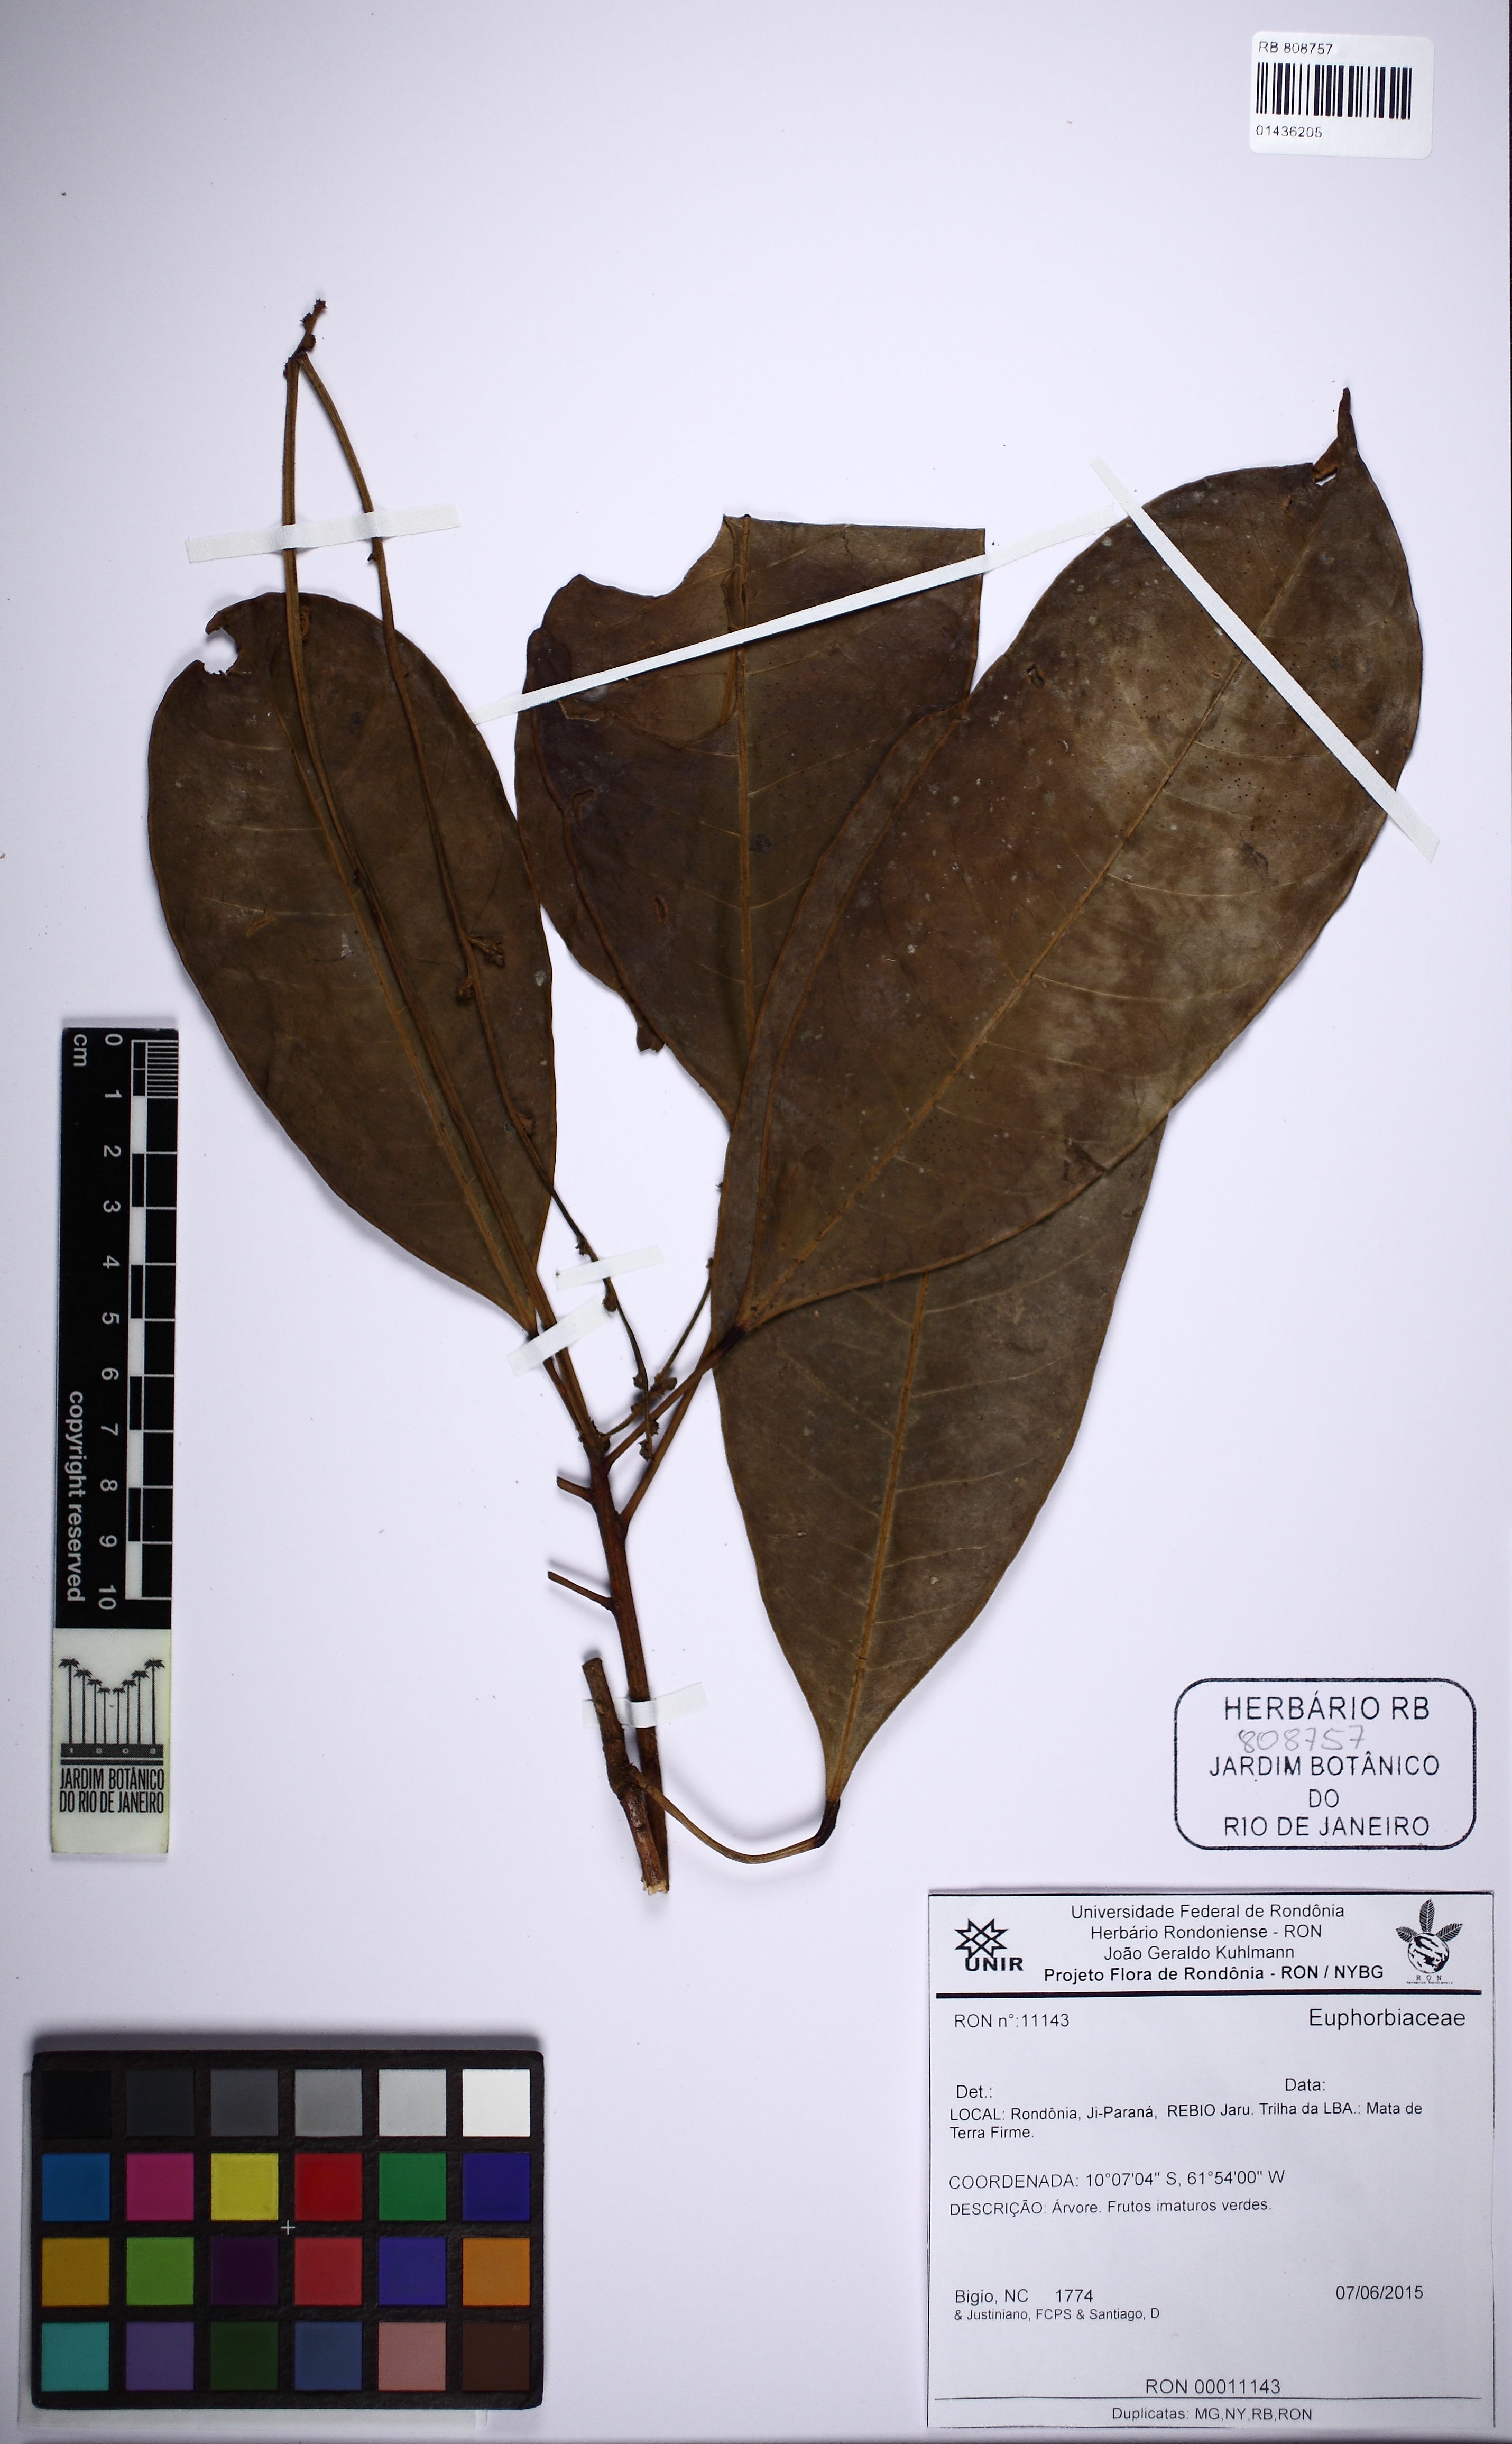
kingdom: Plantae
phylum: Tracheophyta
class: Magnoliopsida
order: Malpighiales
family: Euphorbiaceae
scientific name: Euphorbiaceae
